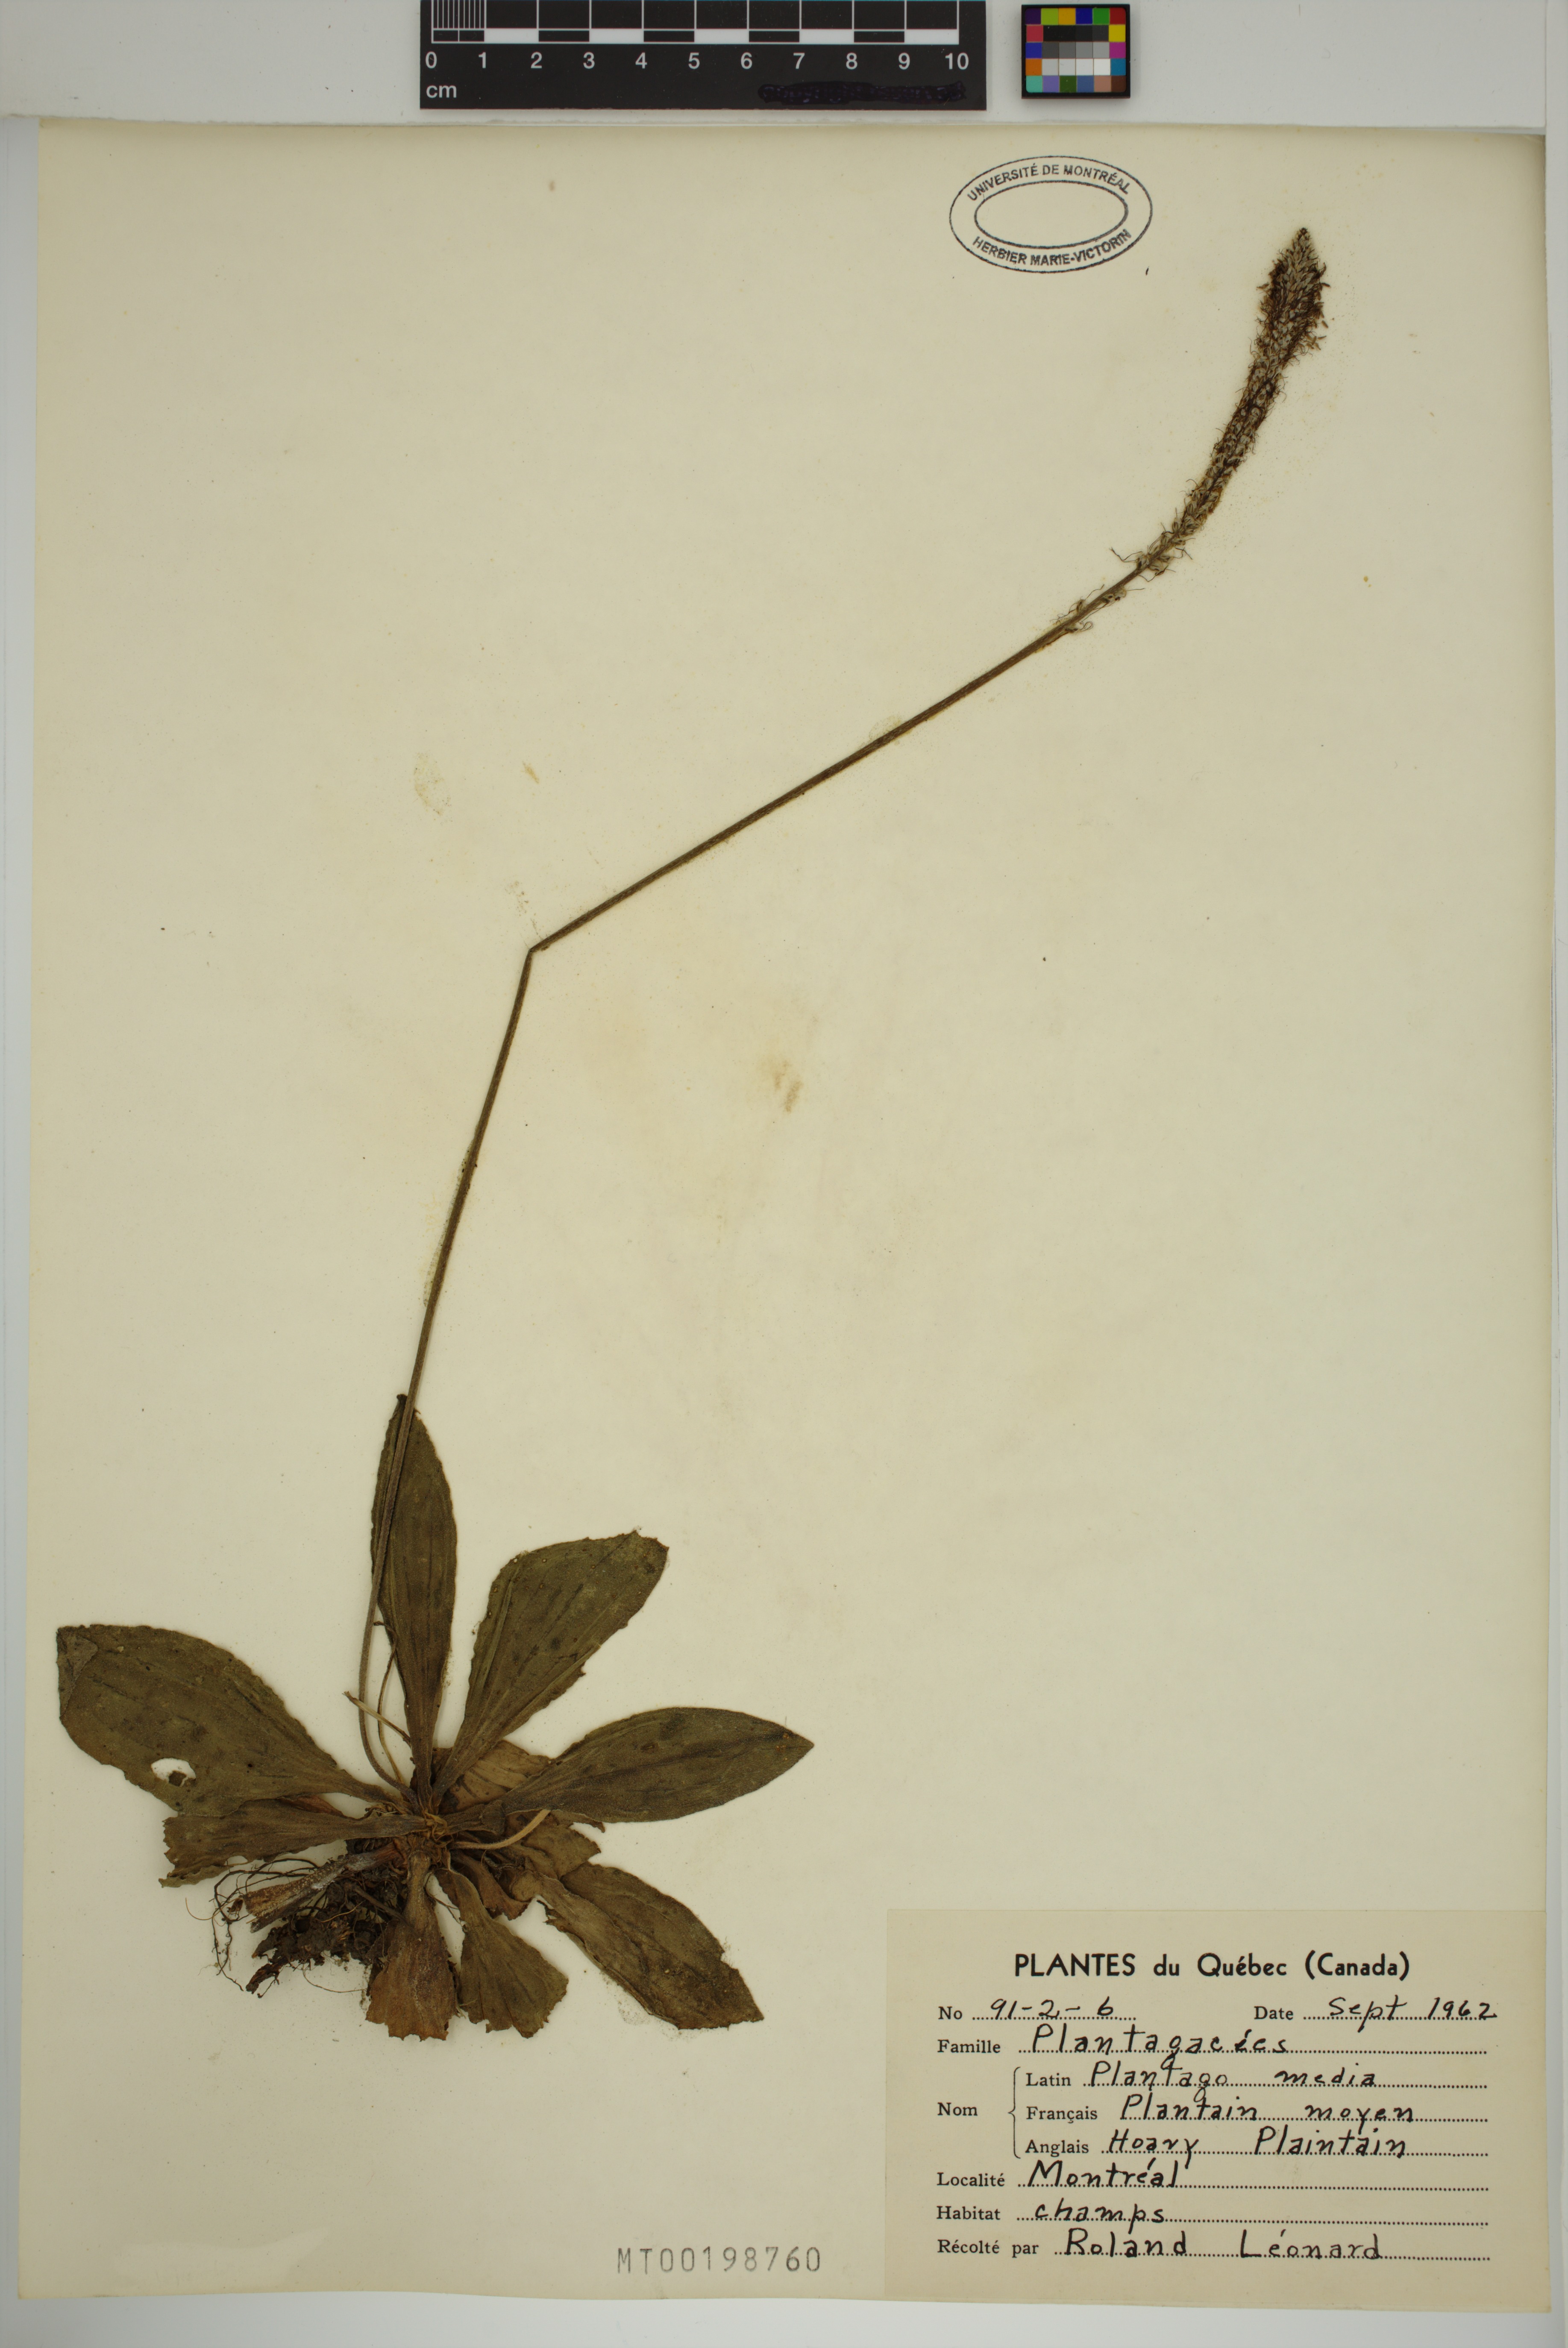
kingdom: Plantae
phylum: Tracheophyta
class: Magnoliopsida
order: Lamiales
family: Plantaginaceae
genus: Plantago
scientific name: Plantago media
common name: Hoary plantain
